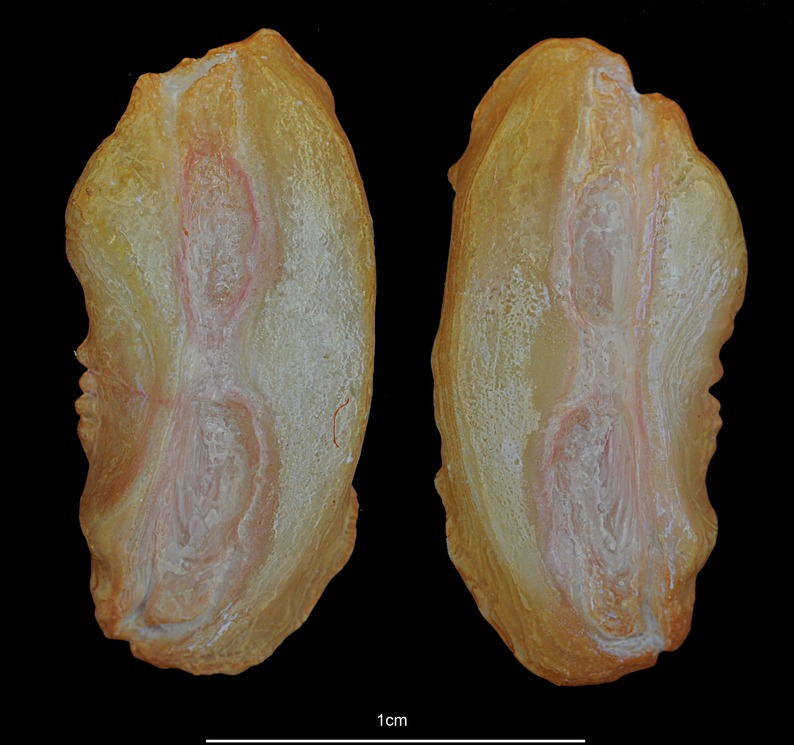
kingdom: Animalia
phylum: Chordata
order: Gadiformes
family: Macrouridae
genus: Coryphaenoides
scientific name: Coryphaenoides rupestris
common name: Rock grenadier
